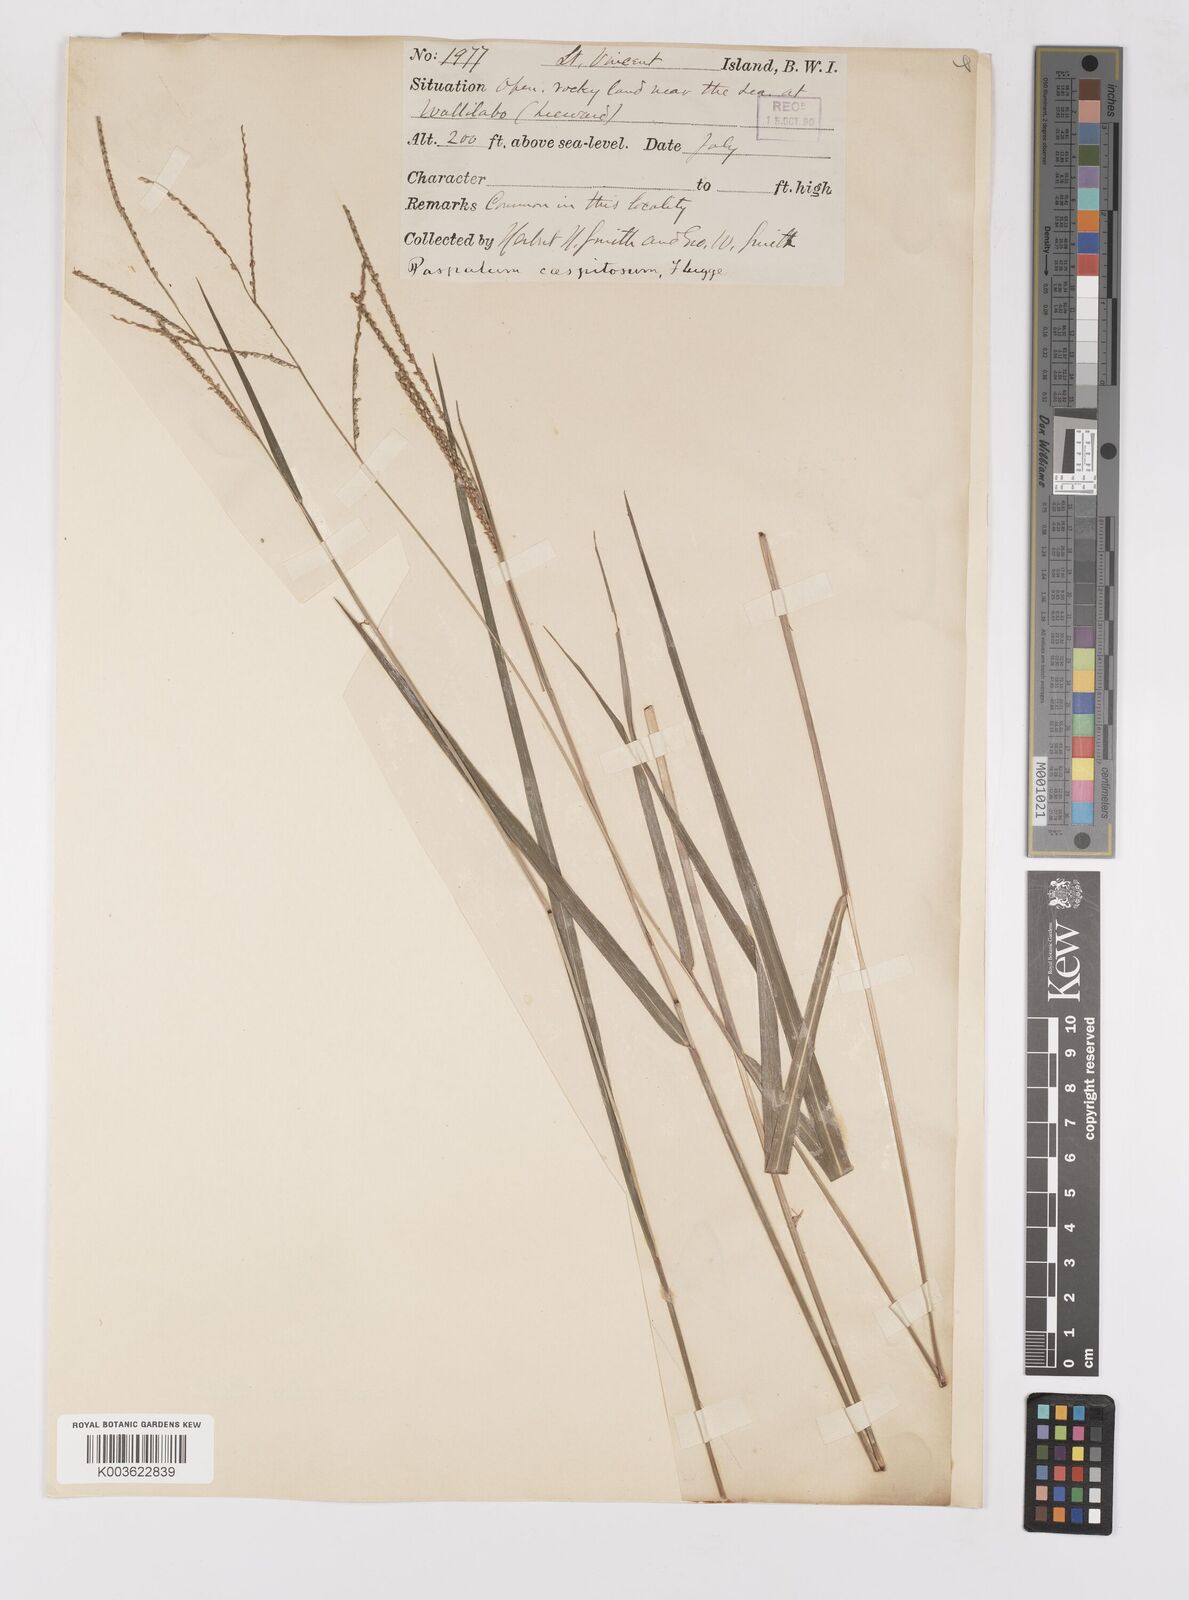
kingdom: Plantae
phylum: Tracheophyta
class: Liliopsida
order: Poales
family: Poaceae
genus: Paspalum
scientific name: Paspalum caespitosum
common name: Blue crowngrass
